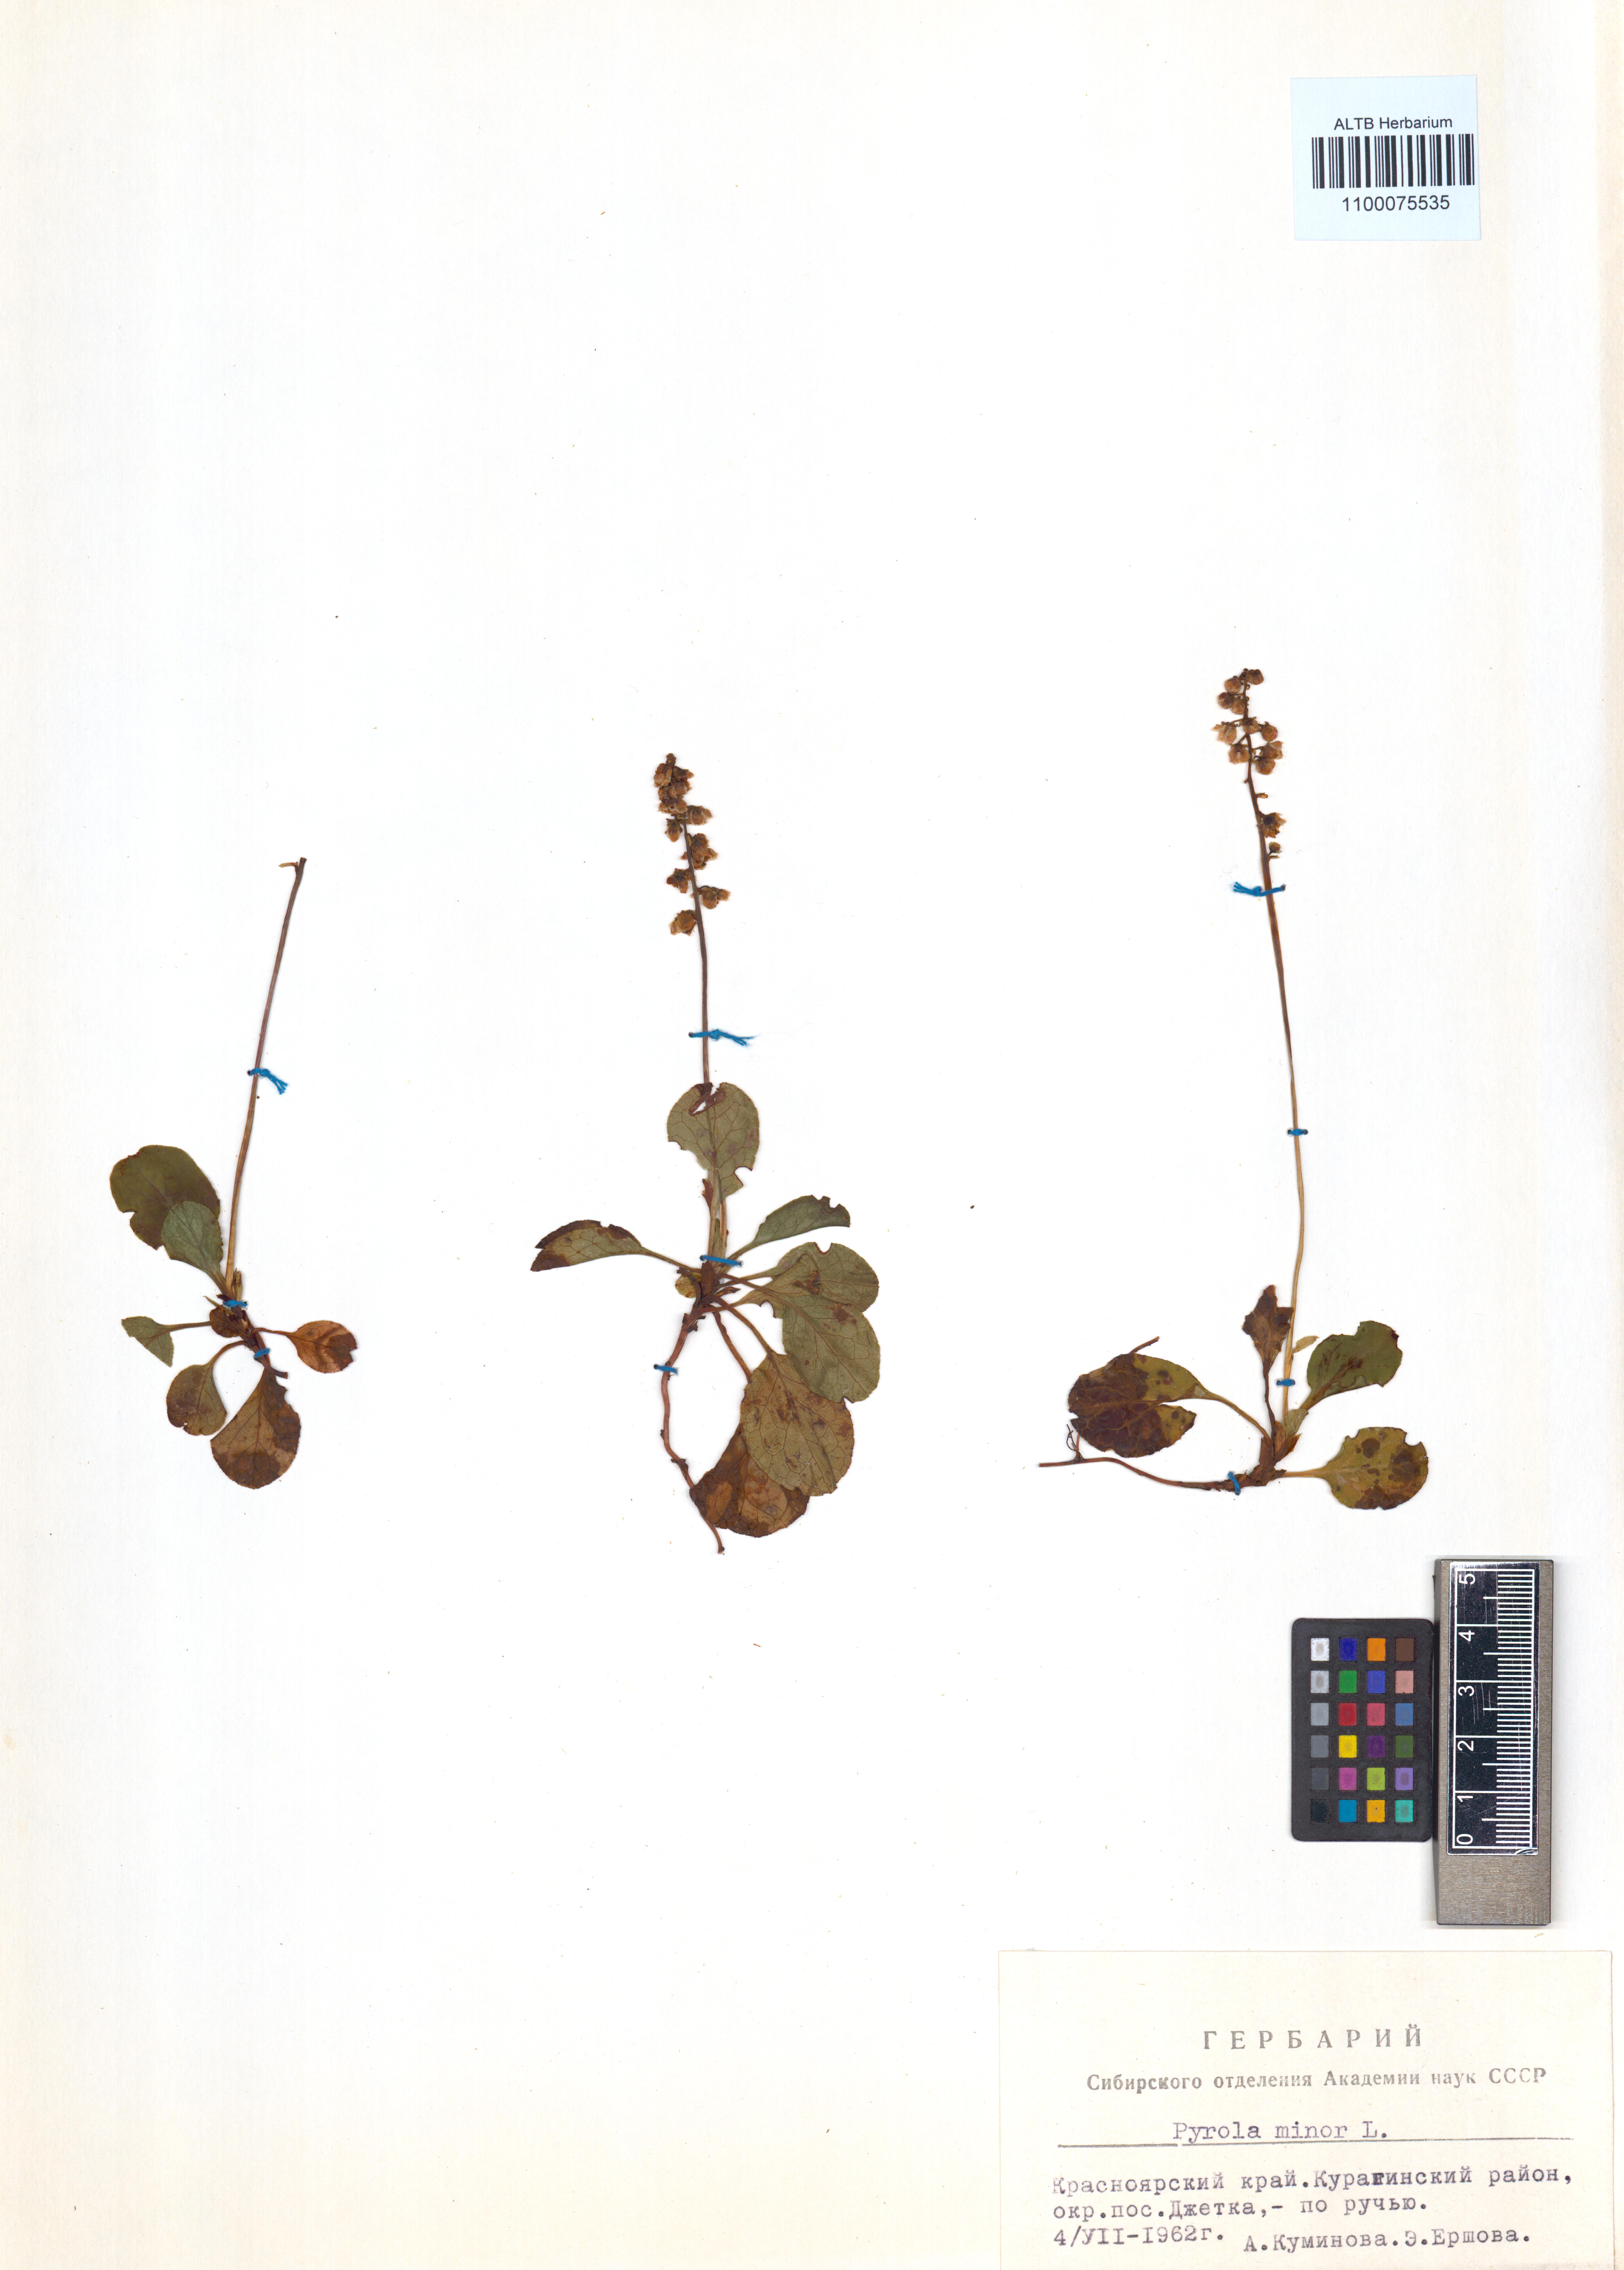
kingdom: Plantae
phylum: Tracheophyta
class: Magnoliopsida
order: Ericales
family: Ericaceae
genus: Pyrola
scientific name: Pyrola minor
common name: Common wintergreen
